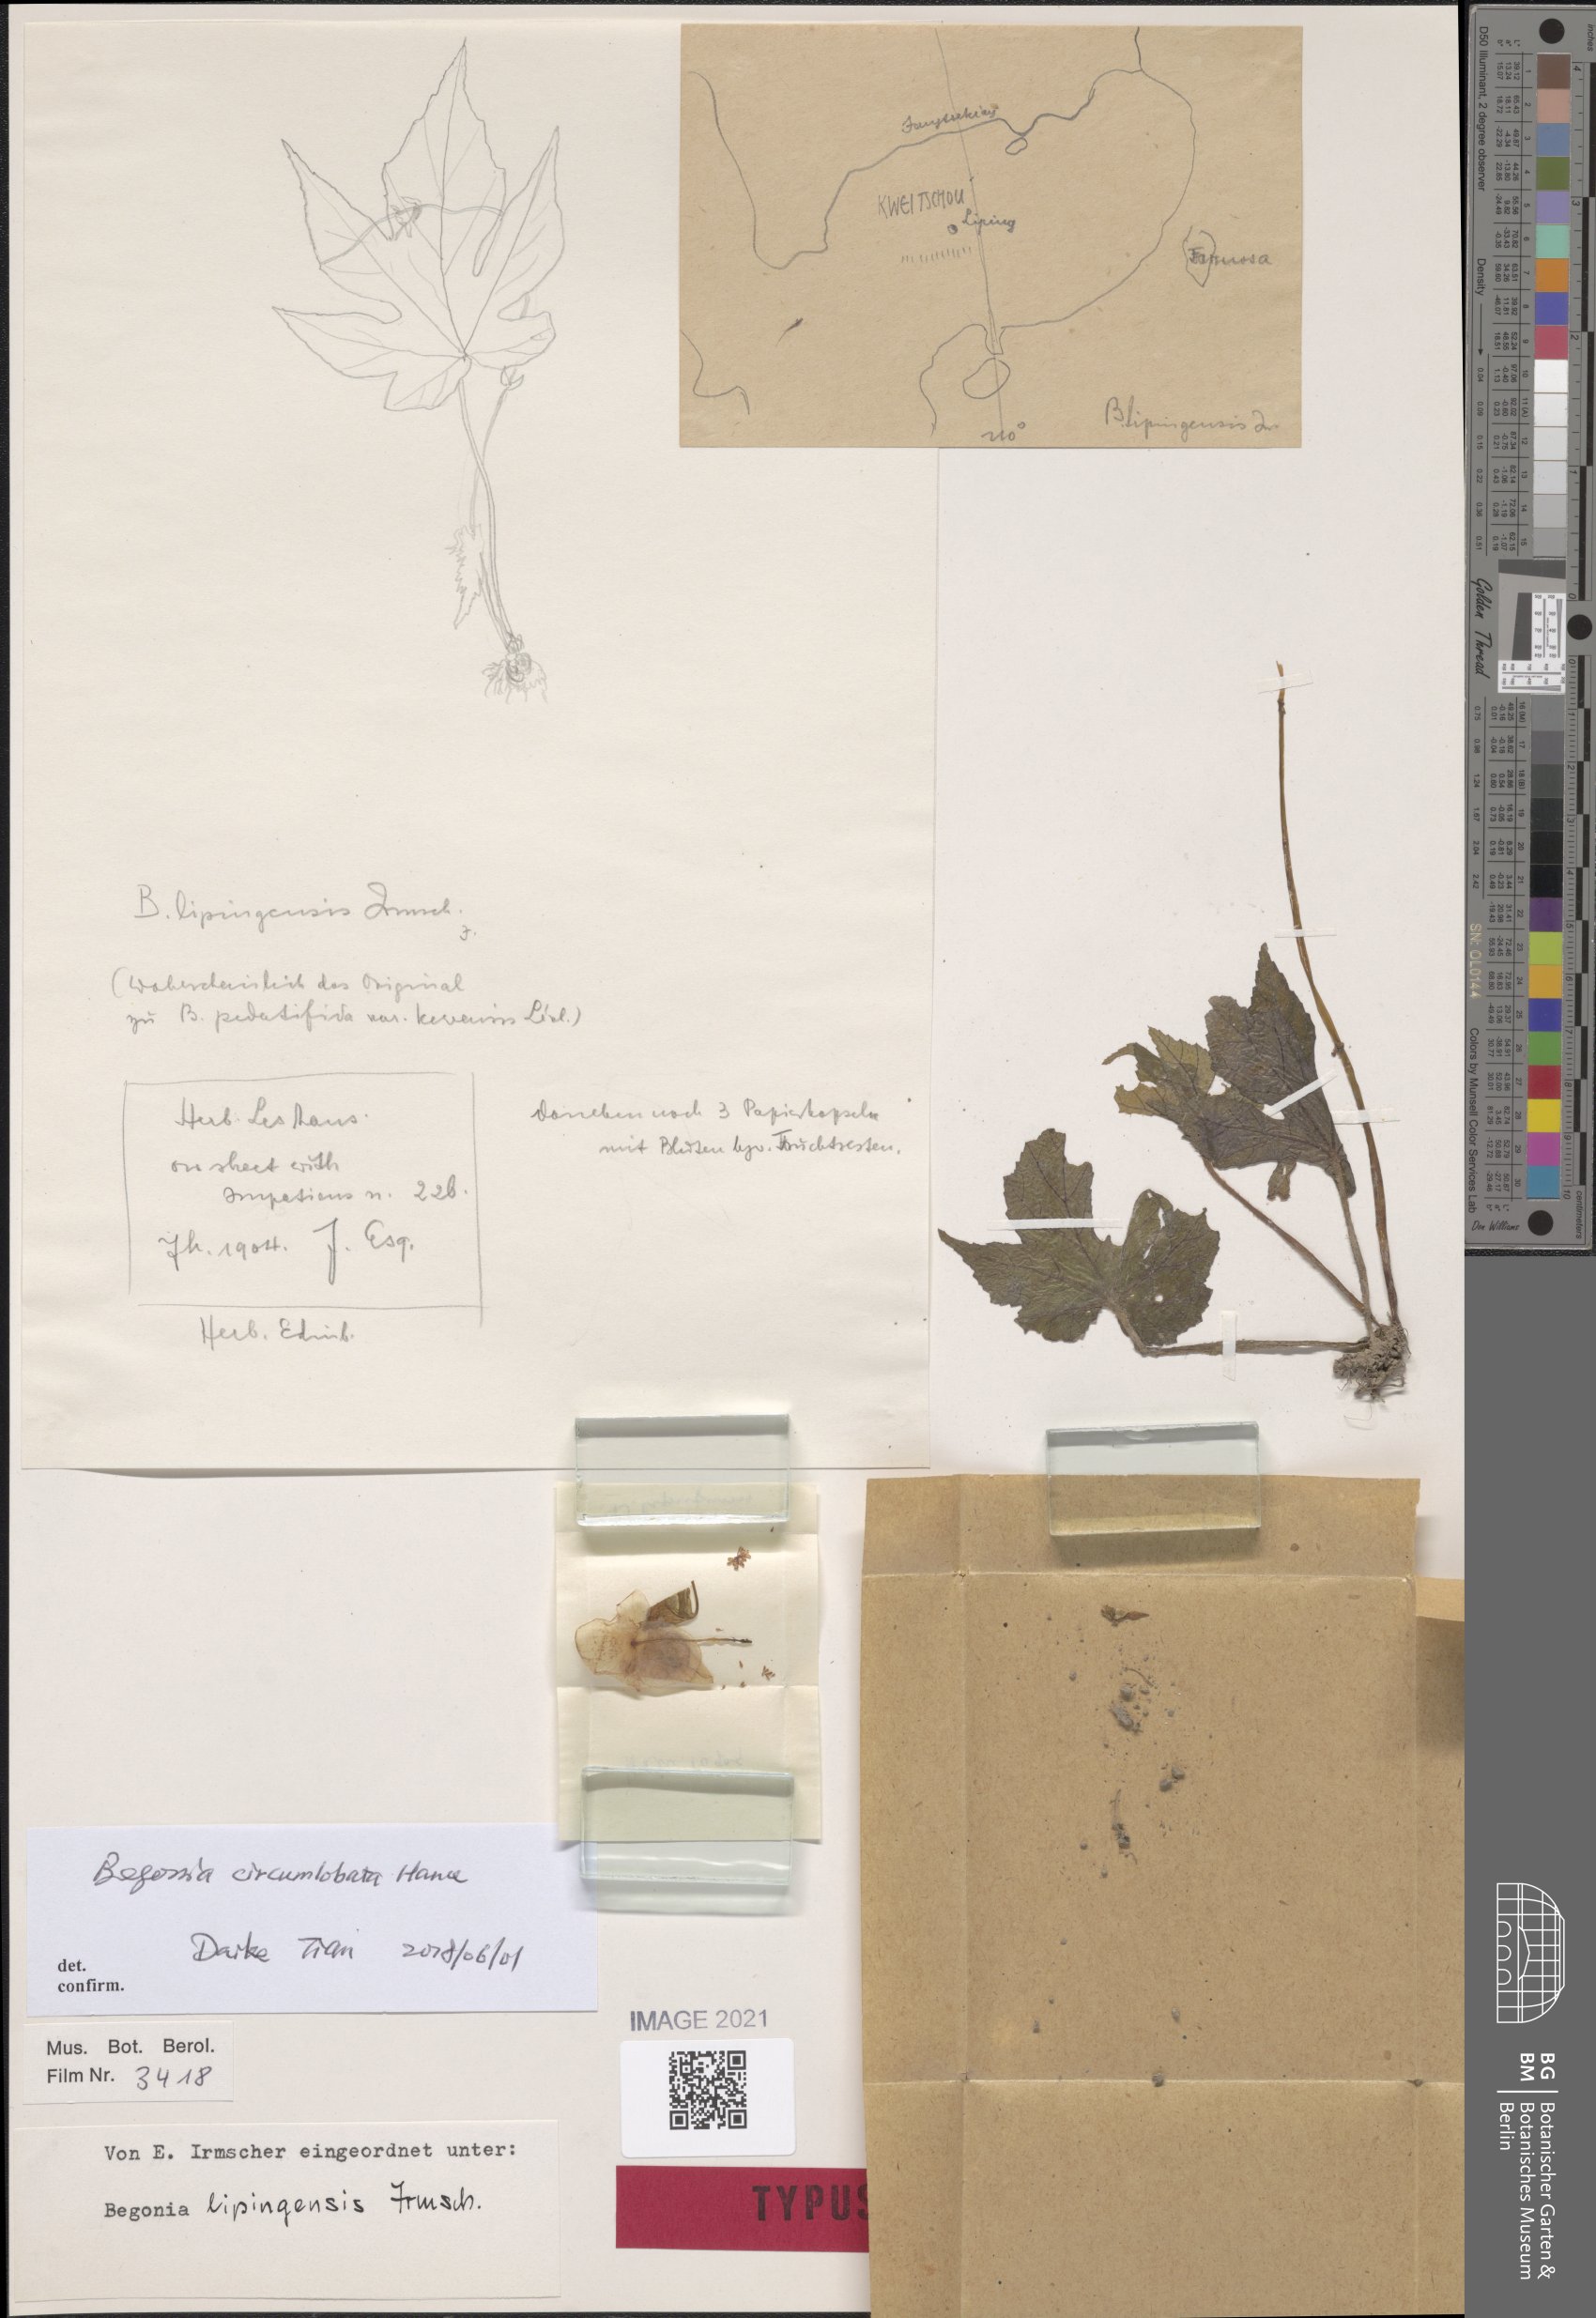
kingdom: Plantae
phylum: Tracheophyta
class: Magnoliopsida
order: Cucurbitales
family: Begoniaceae
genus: Begonia
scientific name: Begonia circumlobata
